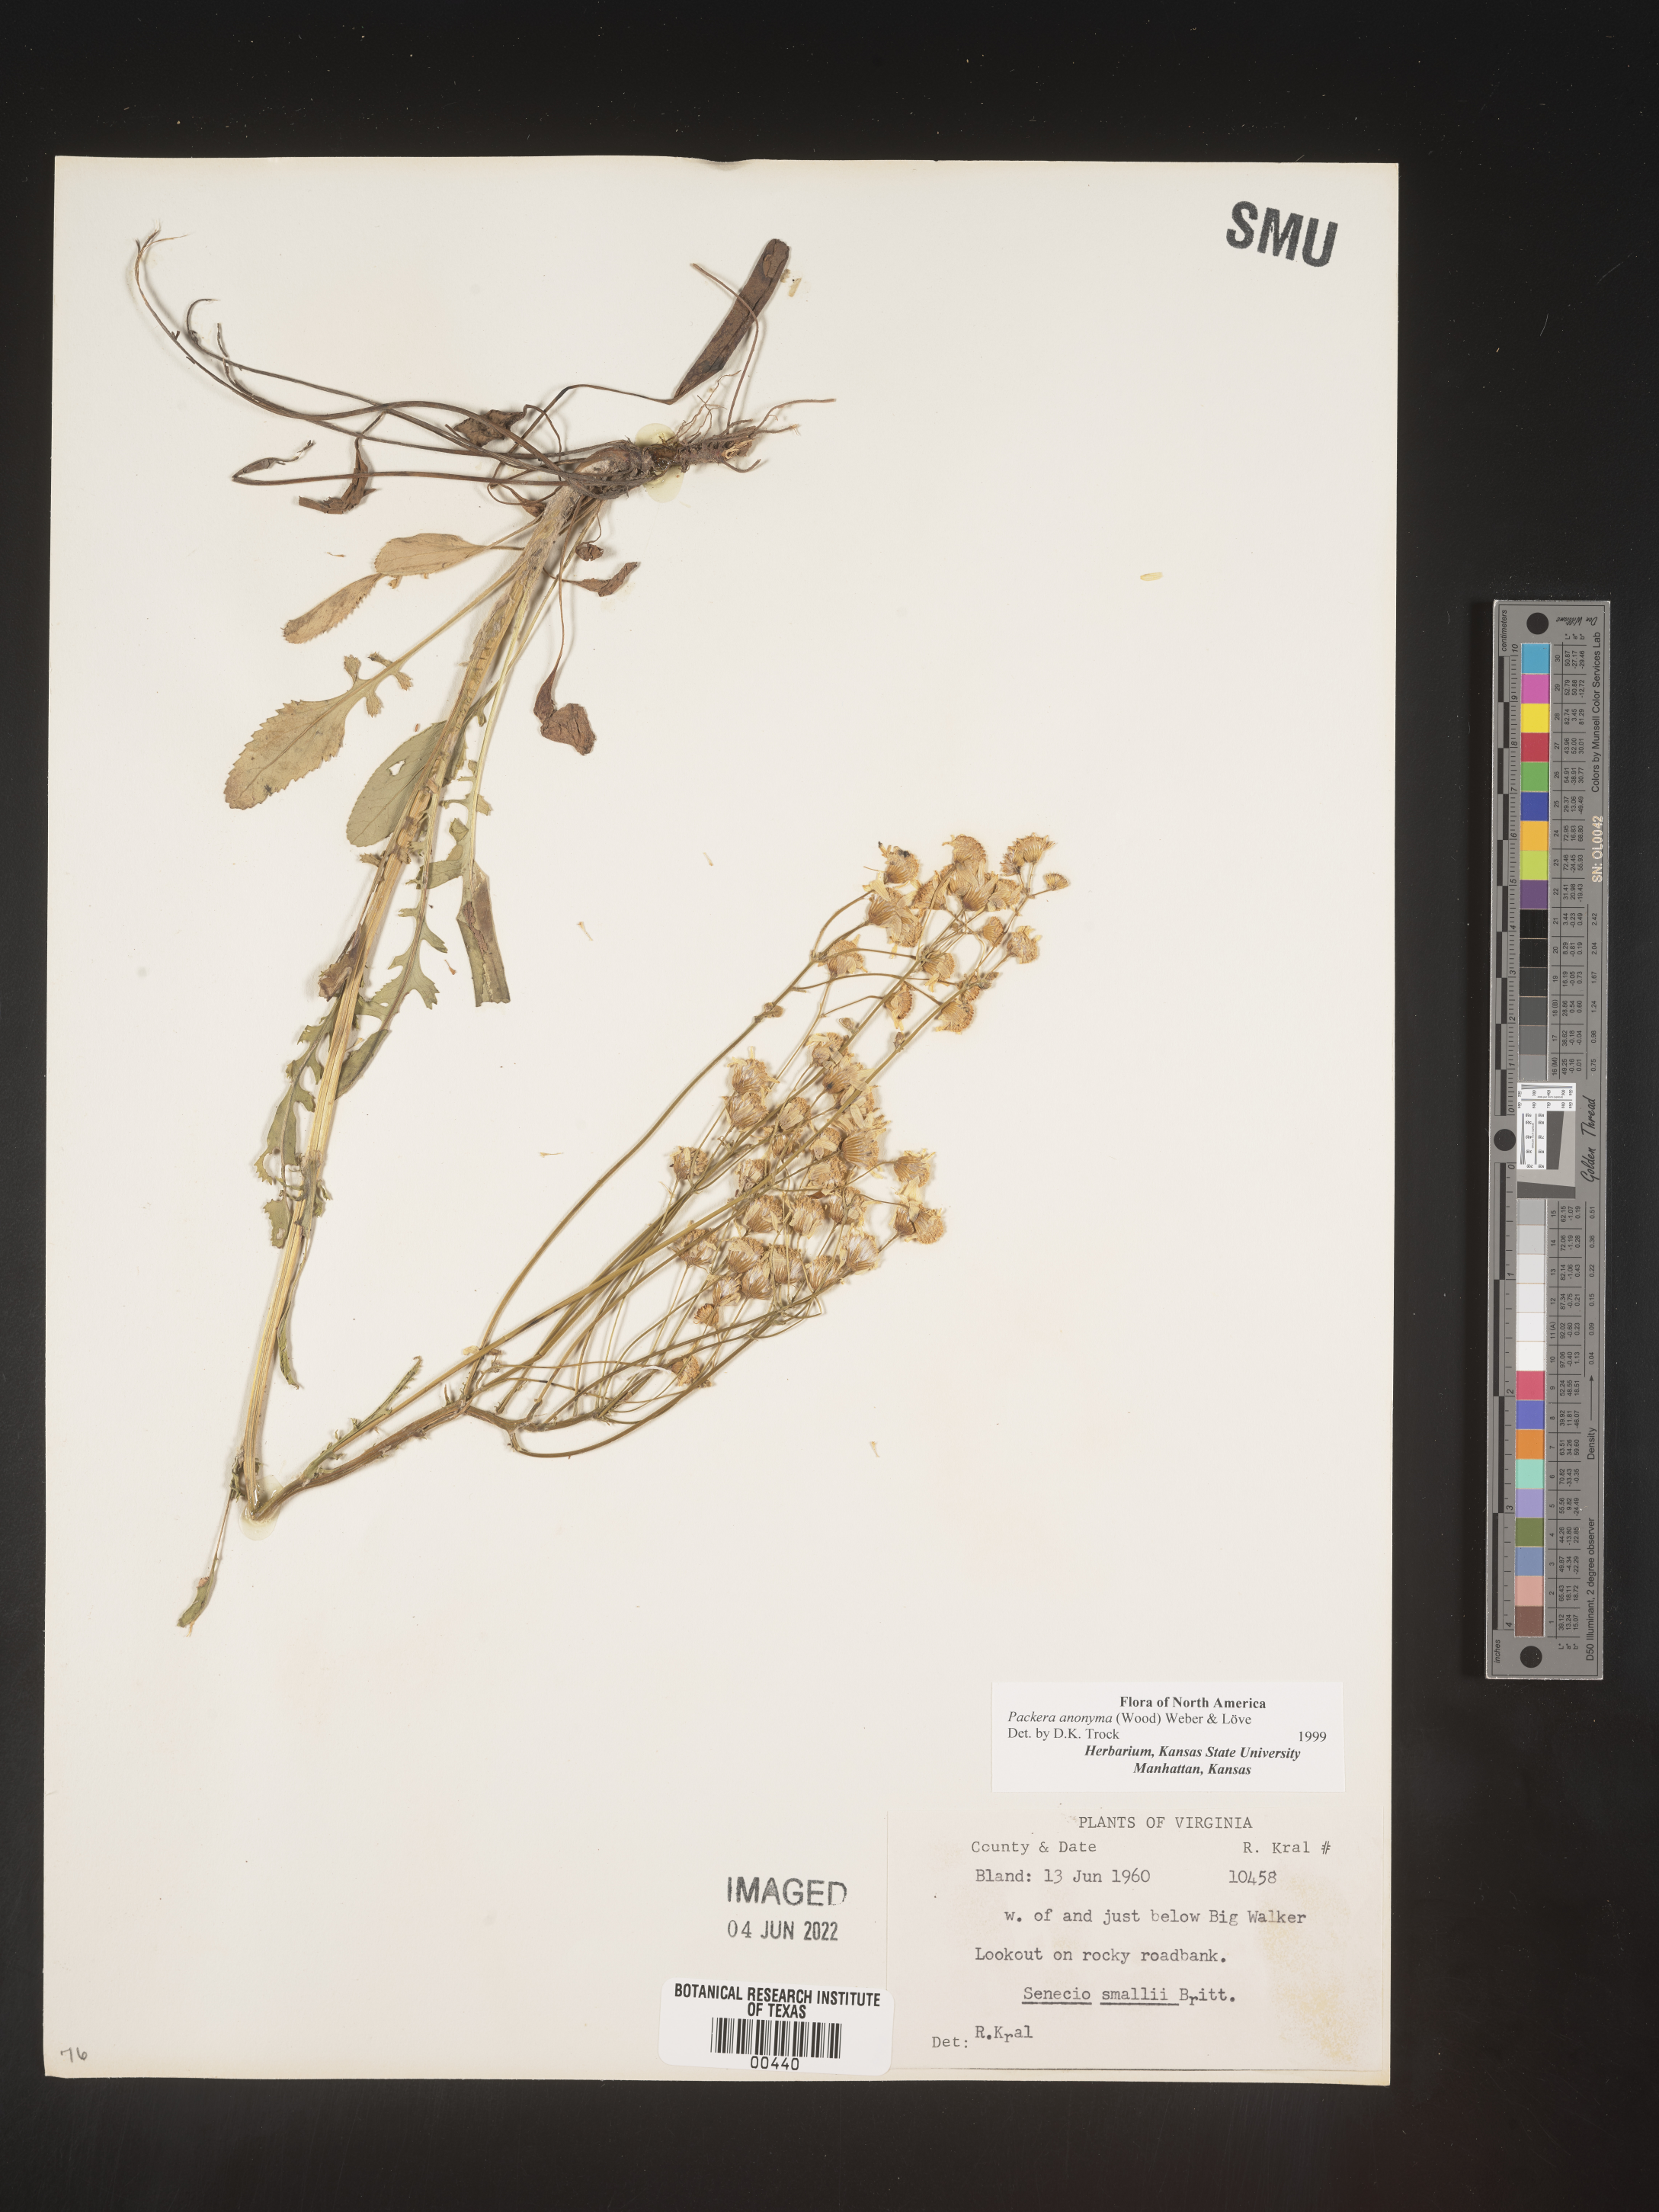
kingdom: Plantae
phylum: Tracheophyta
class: Magnoliopsida
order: Asterales
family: Asteraceae
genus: Packera
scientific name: Packera anonyma
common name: Small ragwort
